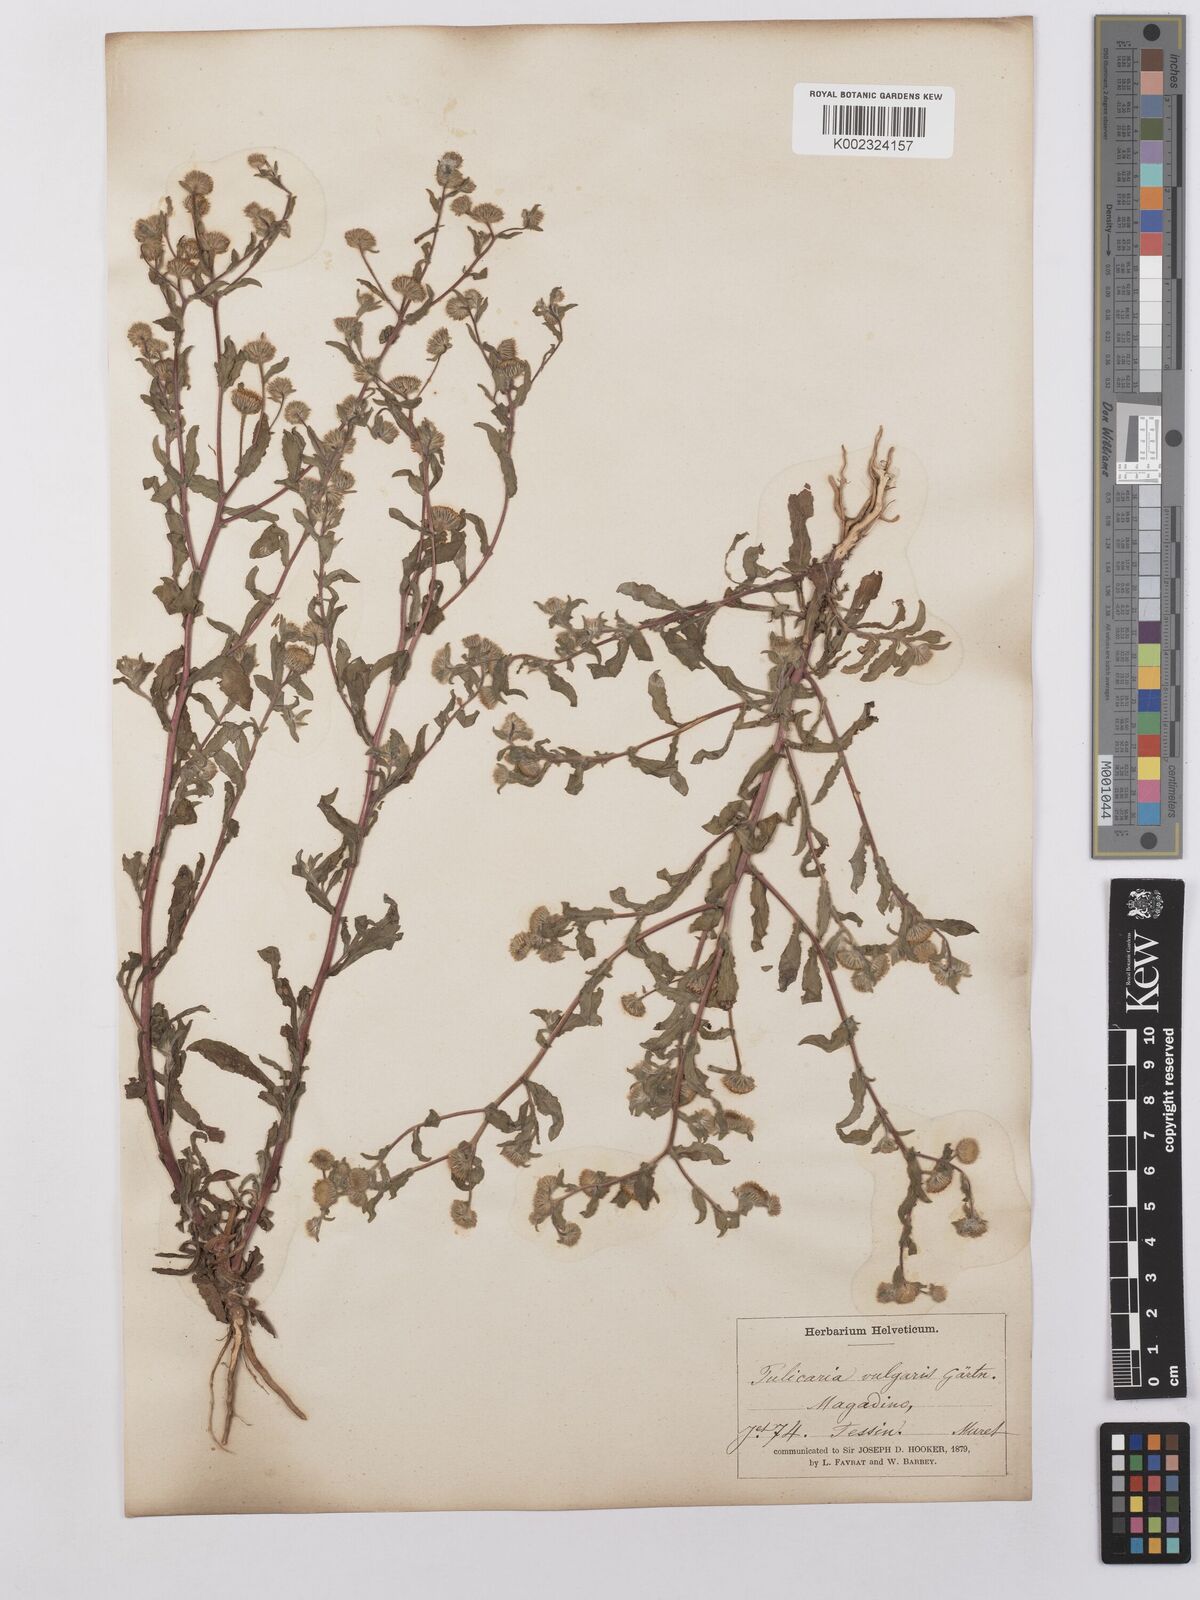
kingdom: Plantae
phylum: Tracheophyta
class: Magnoliopsida
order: Asterales
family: Asteraceae
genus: Pulicaria
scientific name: Pulicaria vulgaris
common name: Small fleabane
